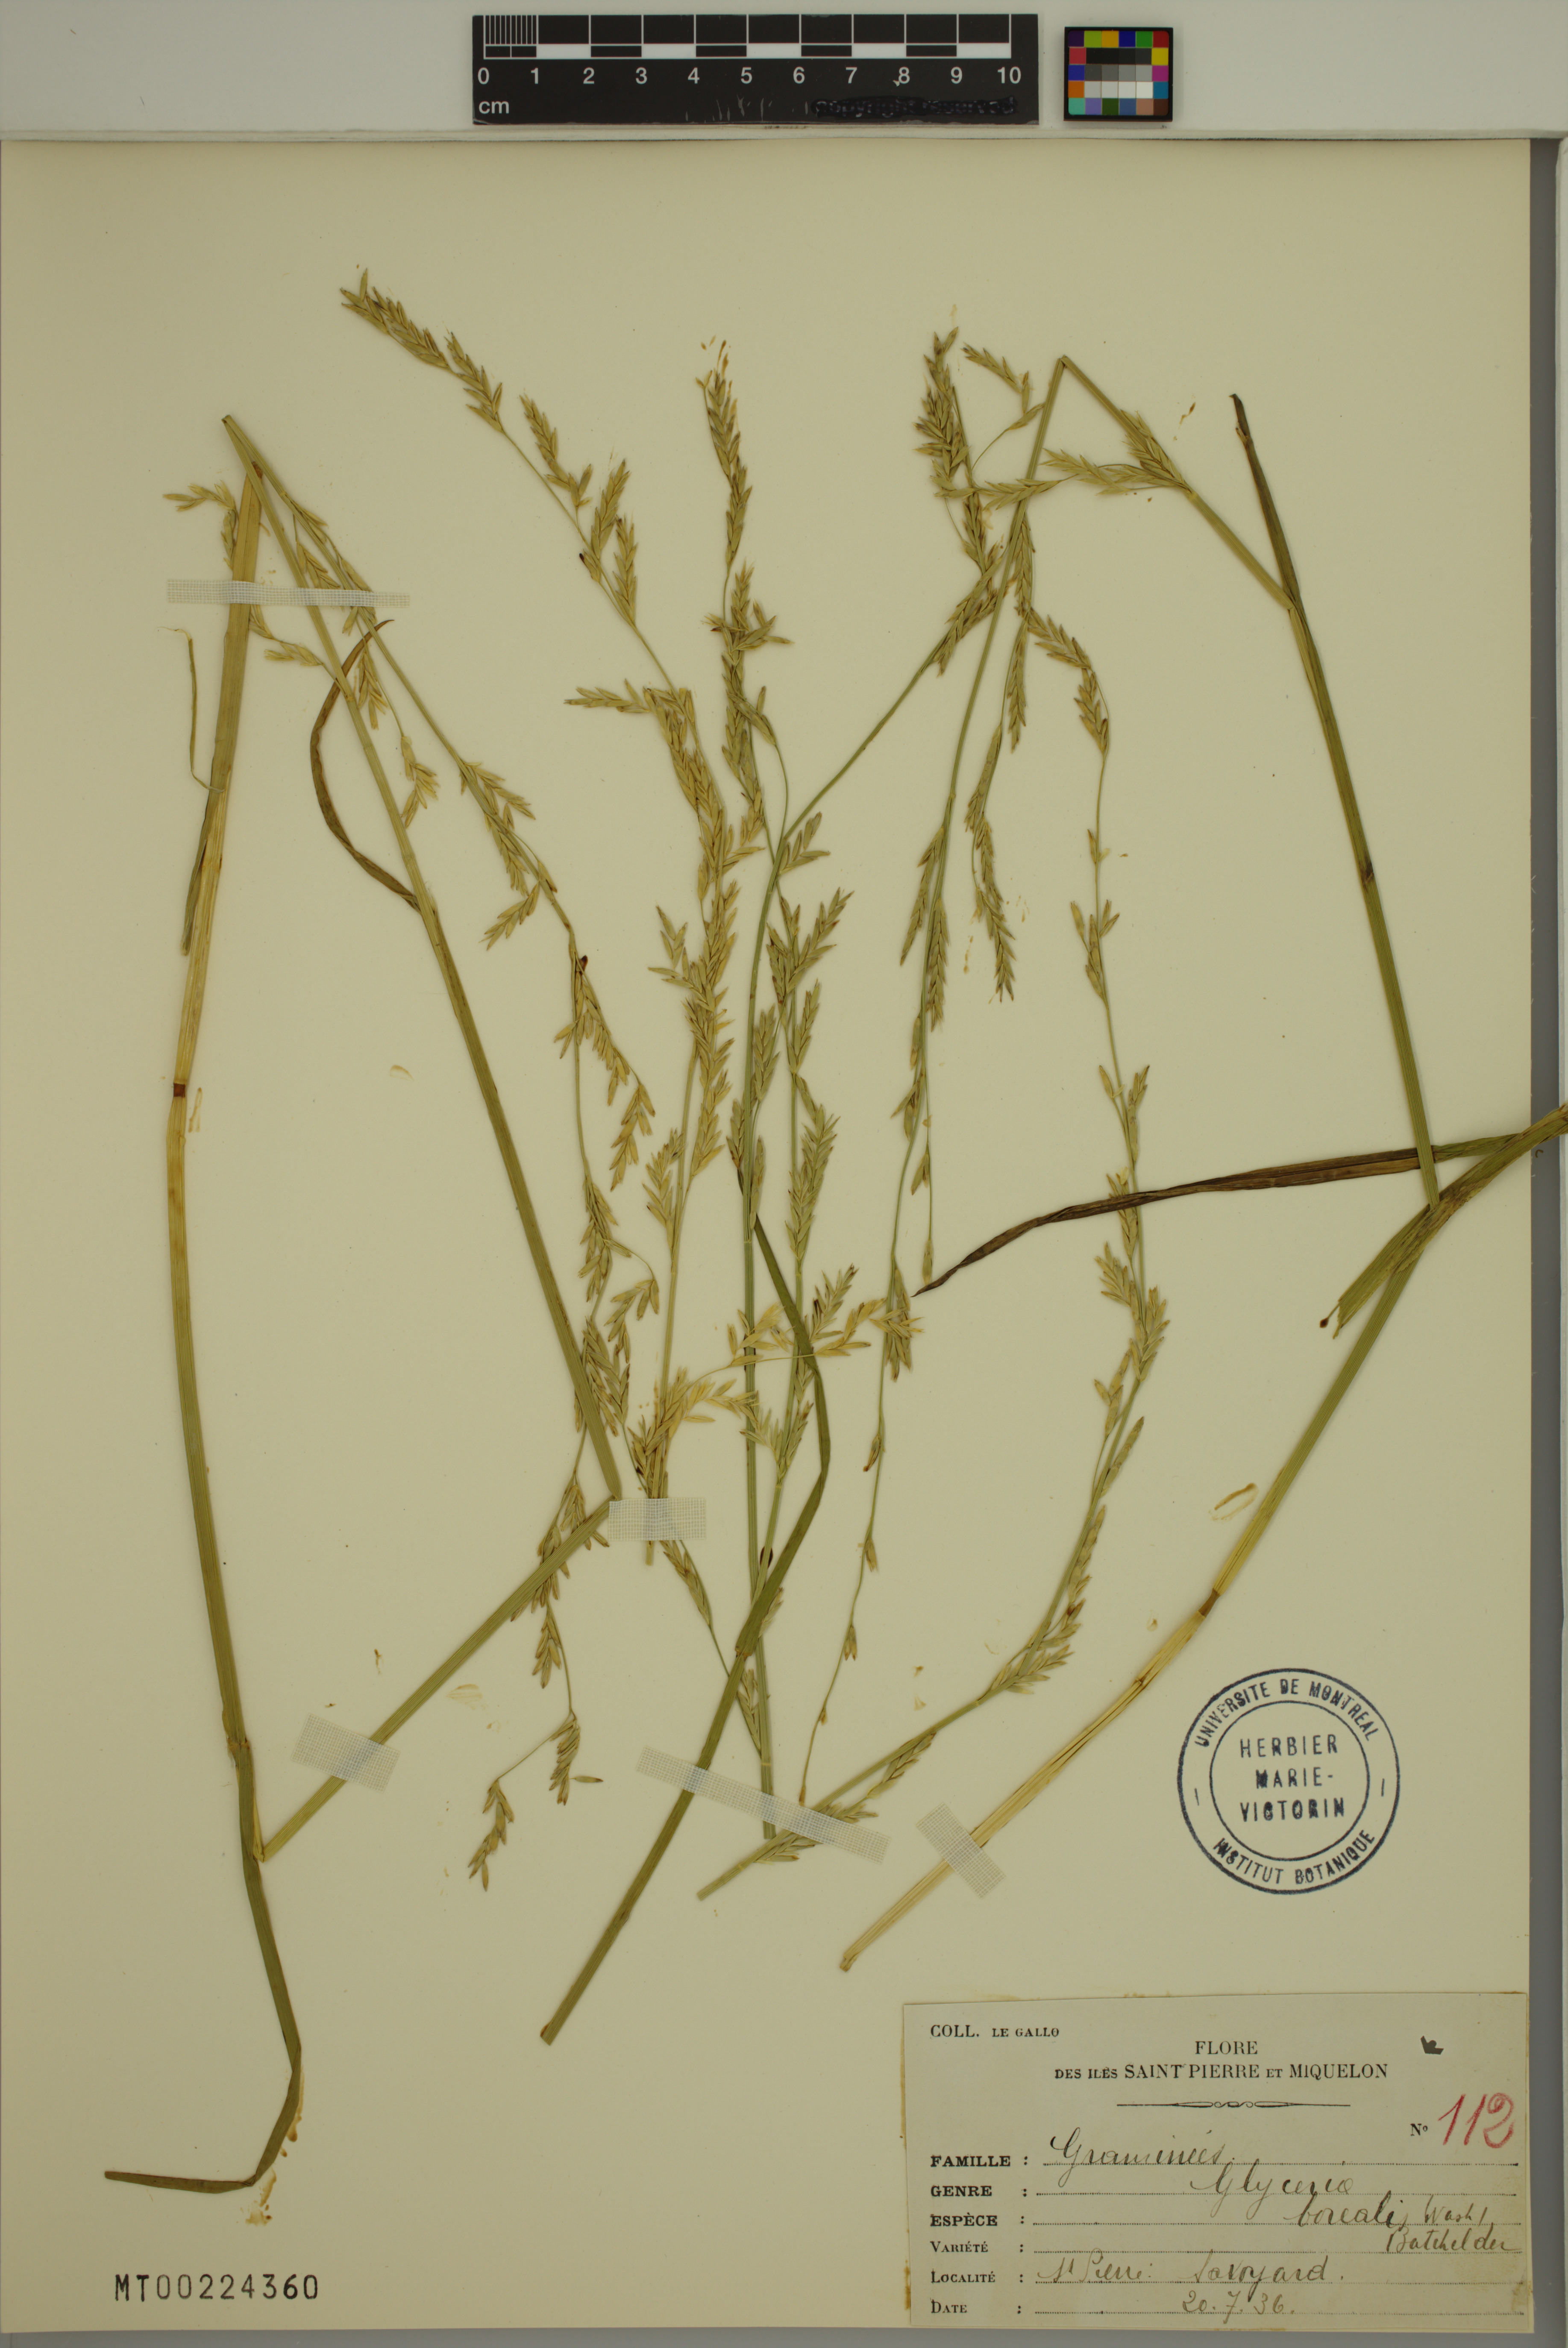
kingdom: Plantae
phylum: Tracheophyta
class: Liliopsida
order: Poales
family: Poaceae
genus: Glyceria
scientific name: Glyceria borealis
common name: Boreal glyceria
